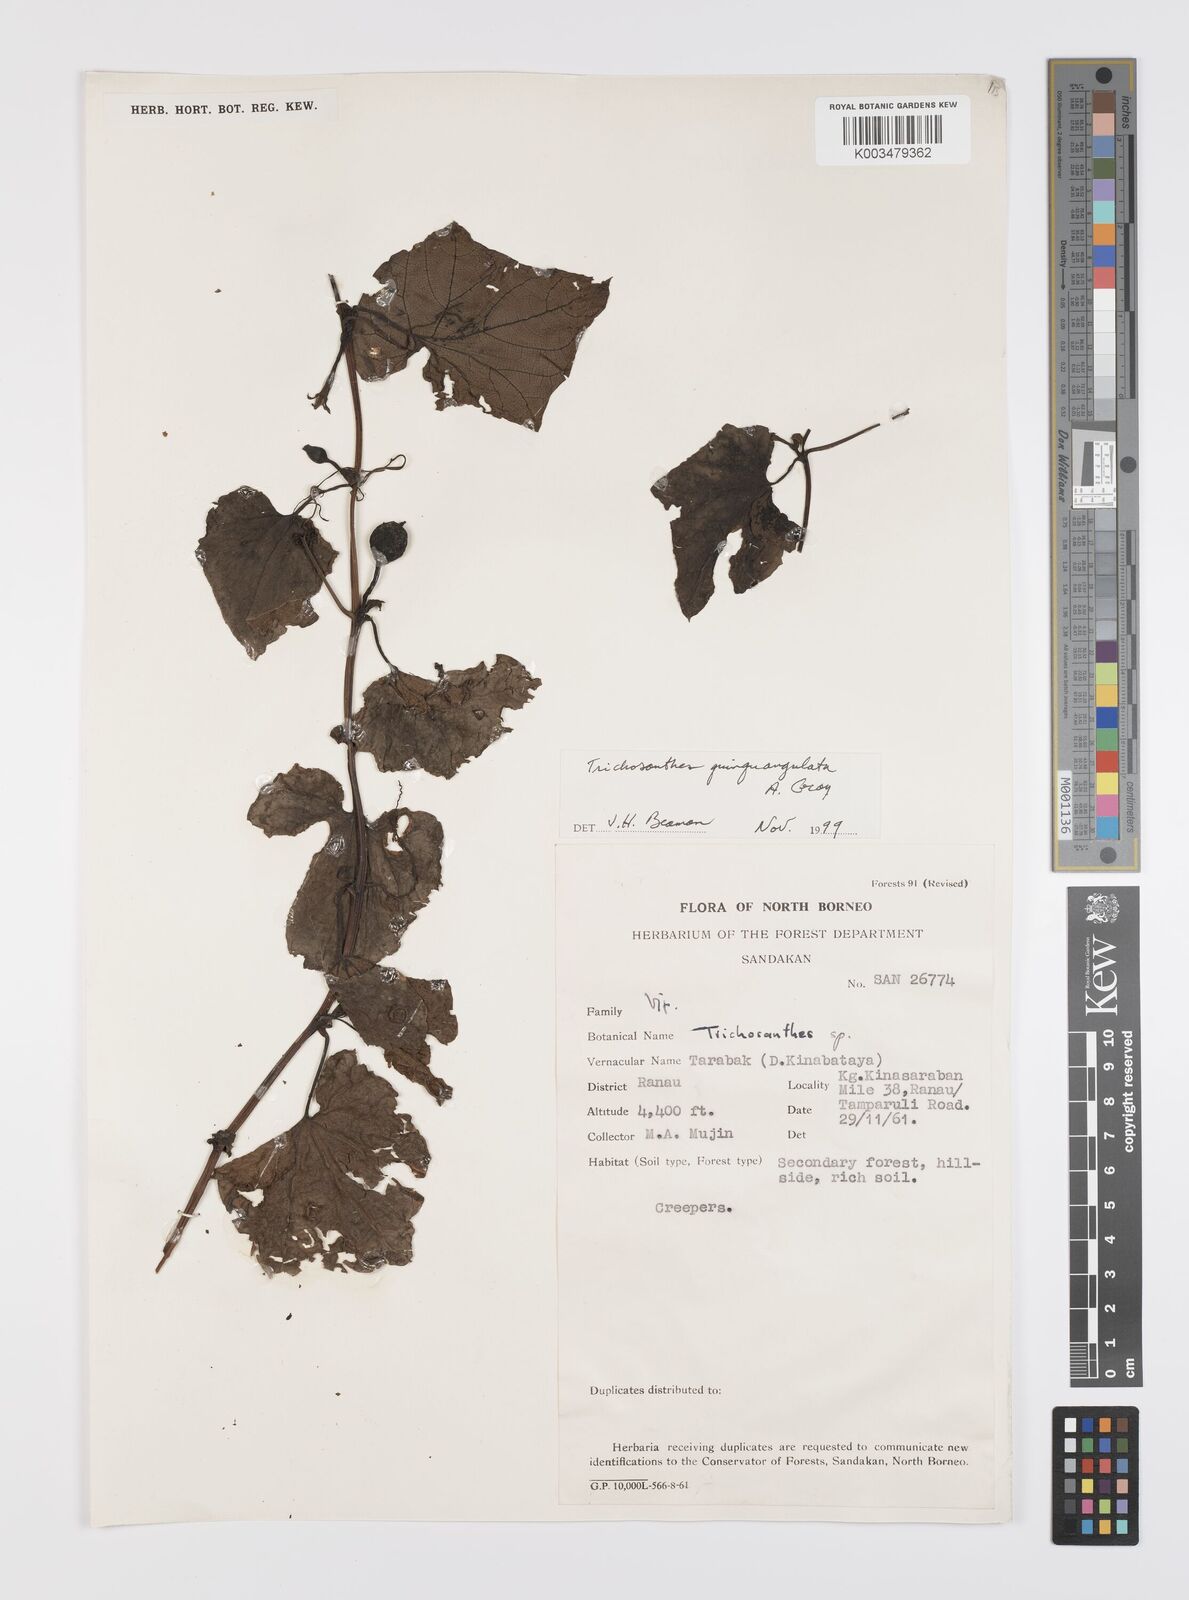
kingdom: Plantae
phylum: Tracheophyta
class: Magnoliopsida
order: Cucurbitales
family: Cucurbitaceae
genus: Trichosanthes
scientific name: Trichosanthes tricuspidata
